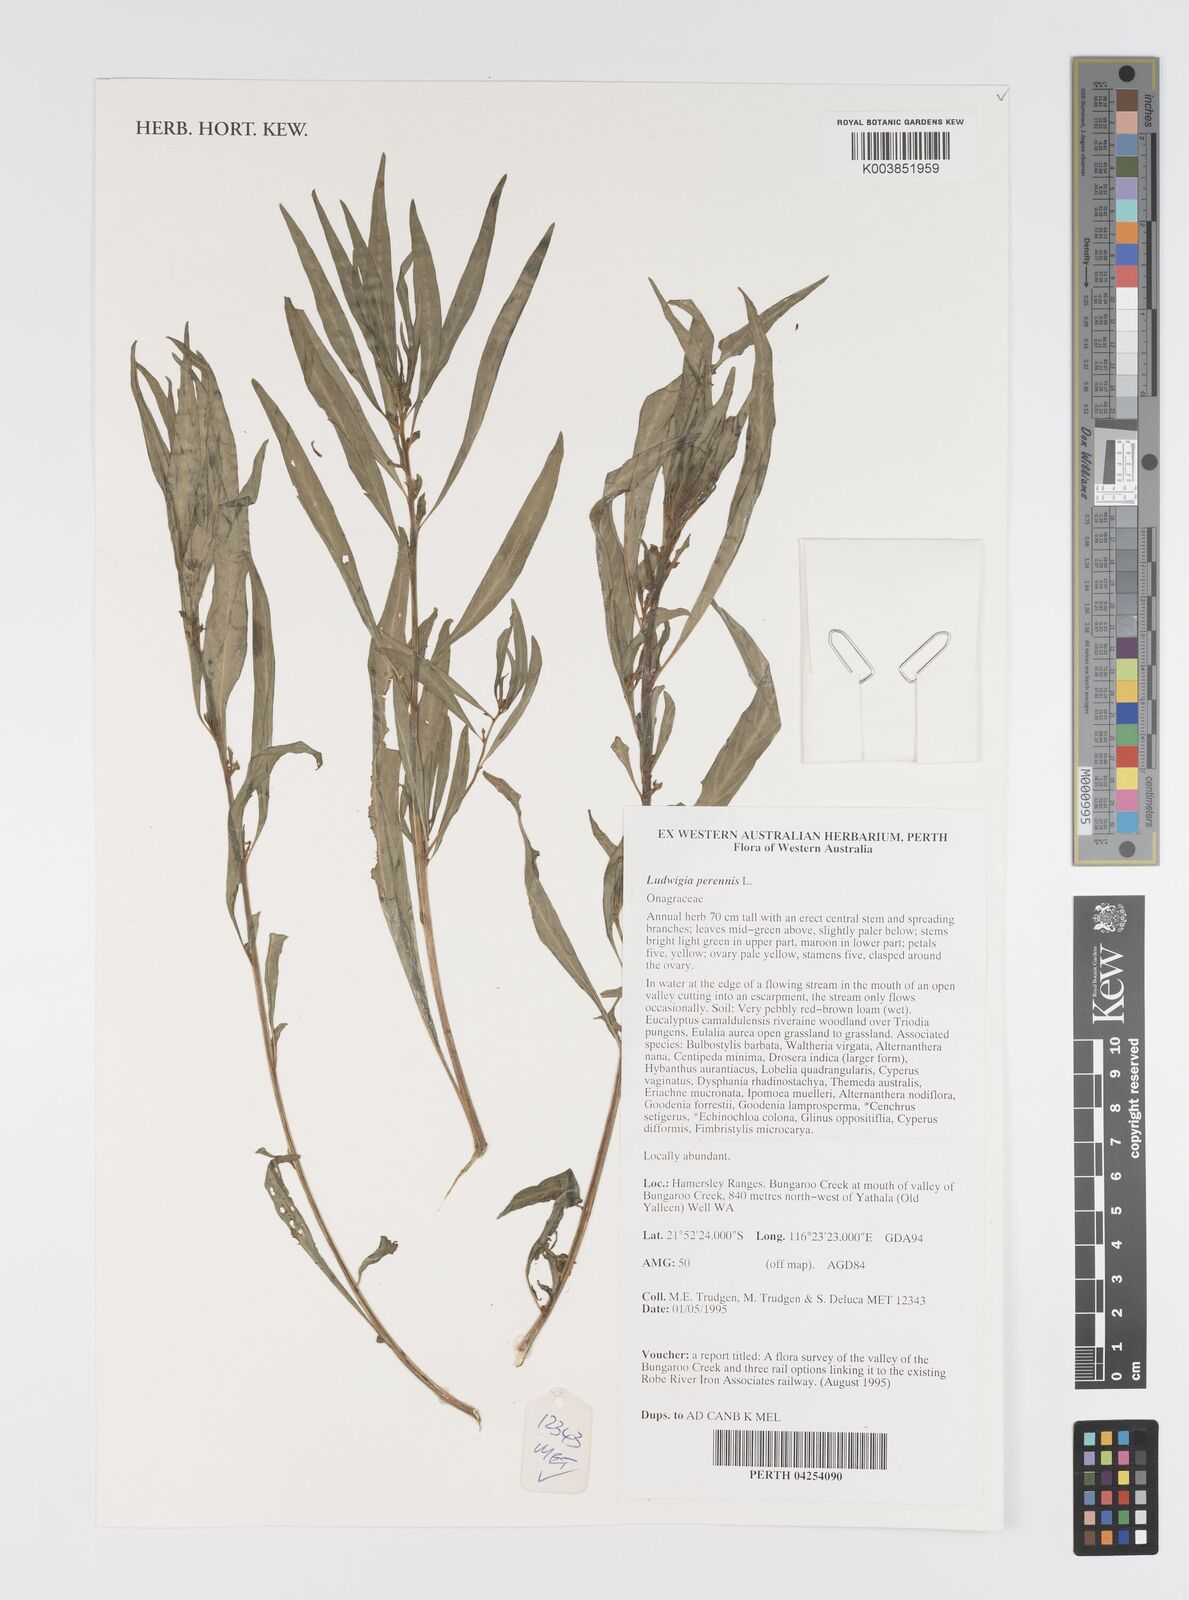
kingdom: Plantae
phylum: Tracheophyta
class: Magnoliopsida
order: Myrtales
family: Onagraceae
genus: Ludwigia
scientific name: Ludwigia perennis
